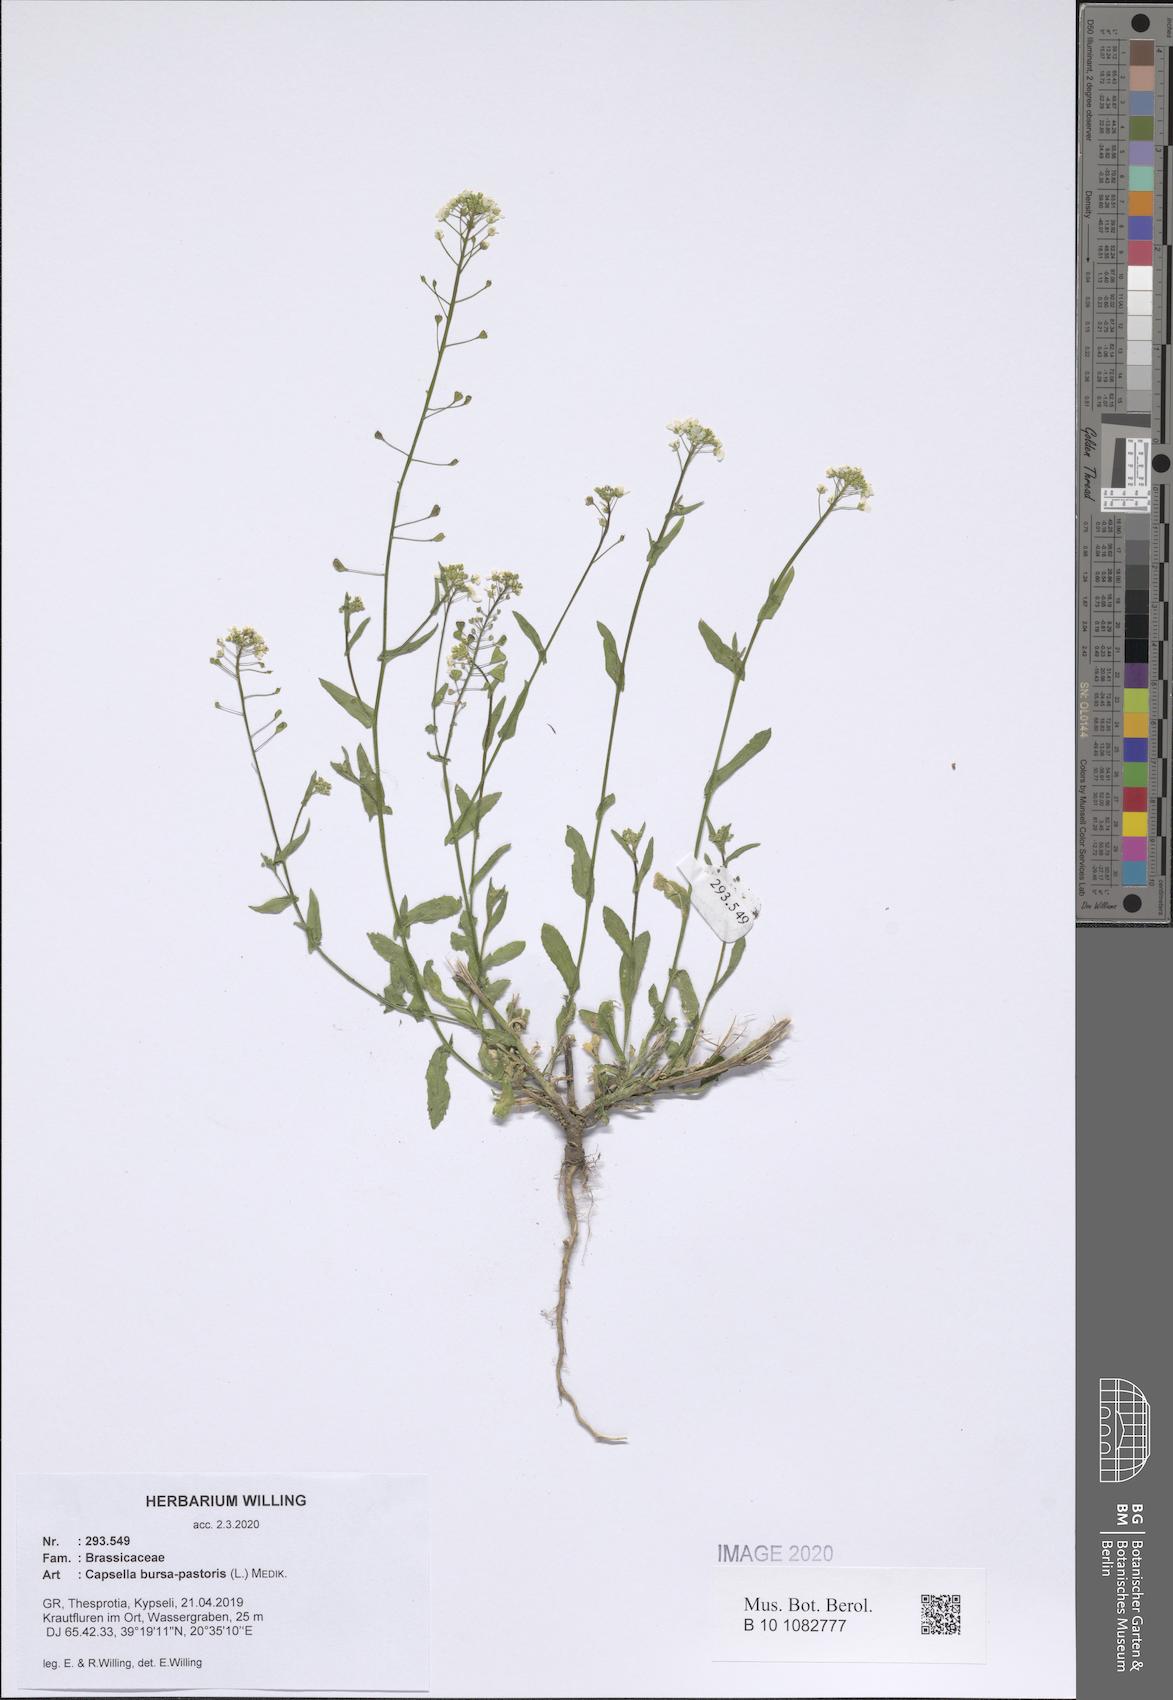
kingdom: Plantae
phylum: Tracheophyta
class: Magnoliopsida
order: Brassicales
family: Brassicaceae
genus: Capsella
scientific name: Capsella bursa-pastoris
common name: Shepherd's purse
